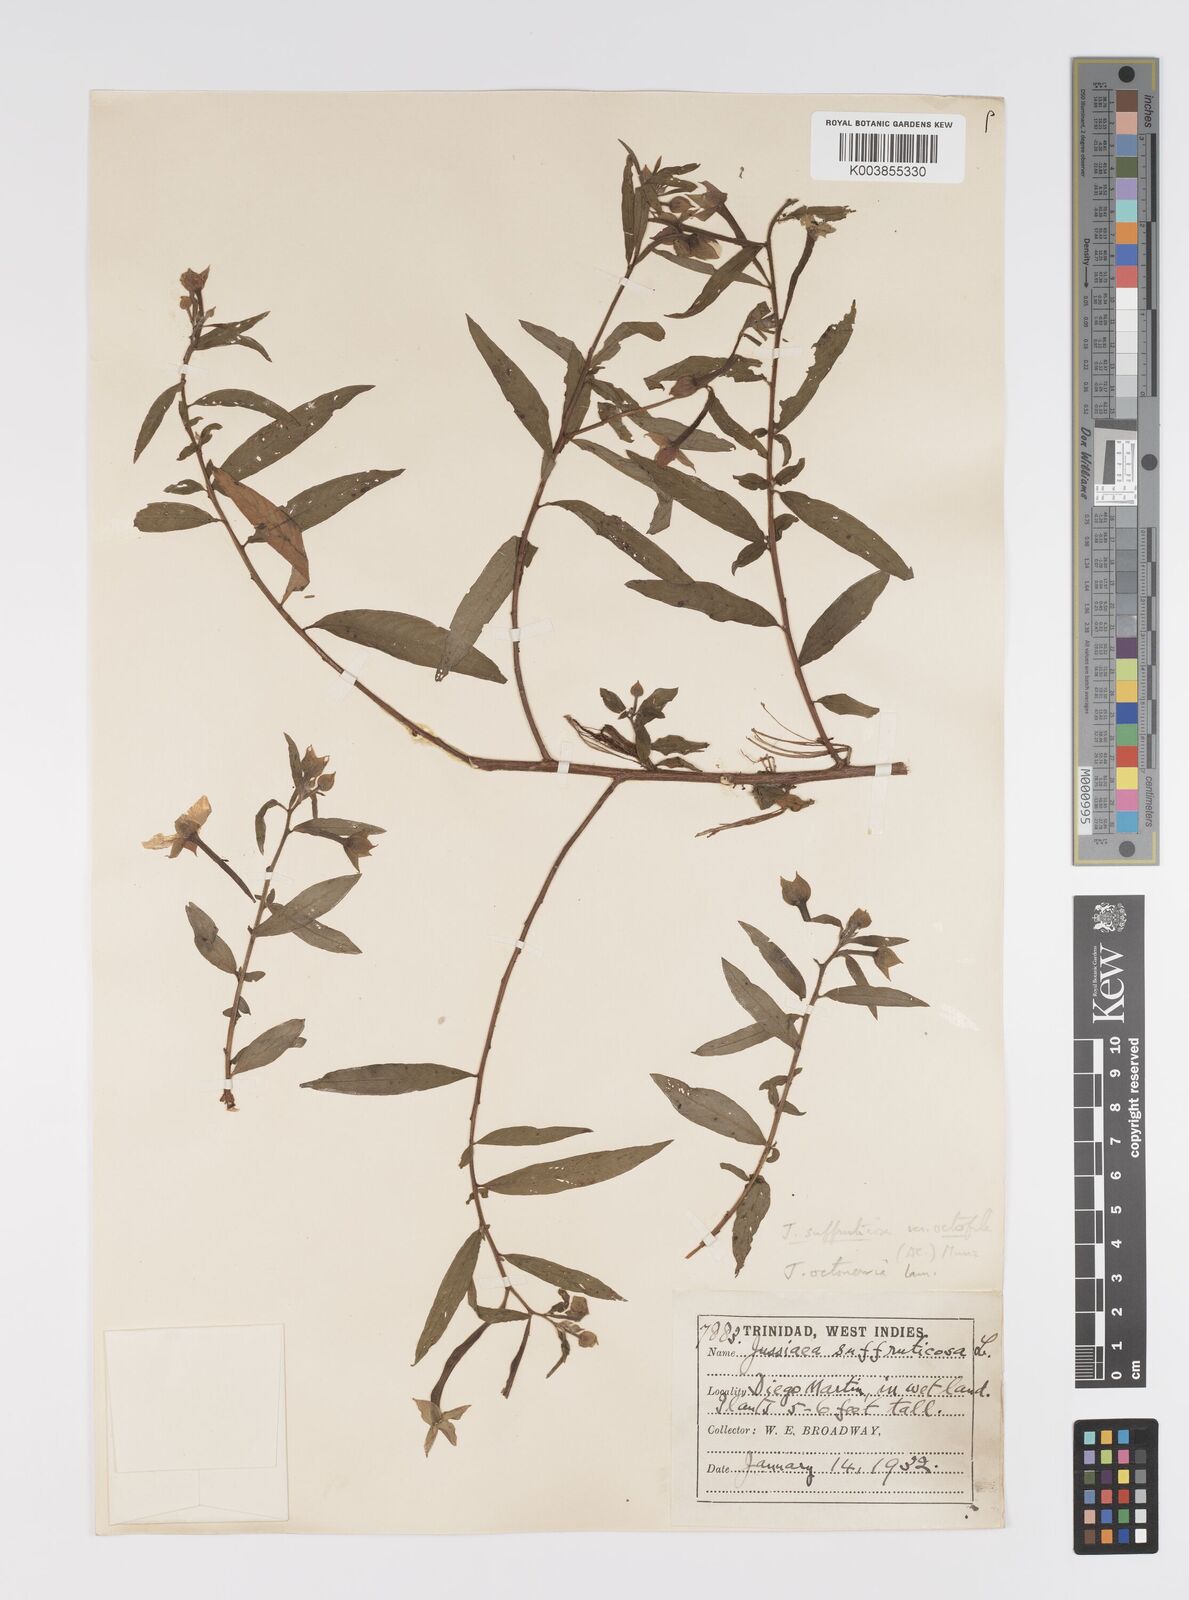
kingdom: Plantae
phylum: Tracheophyta
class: Magnoliopsida
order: Myrtales
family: Onagraceae
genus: Ludwigia
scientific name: Ludwigia
